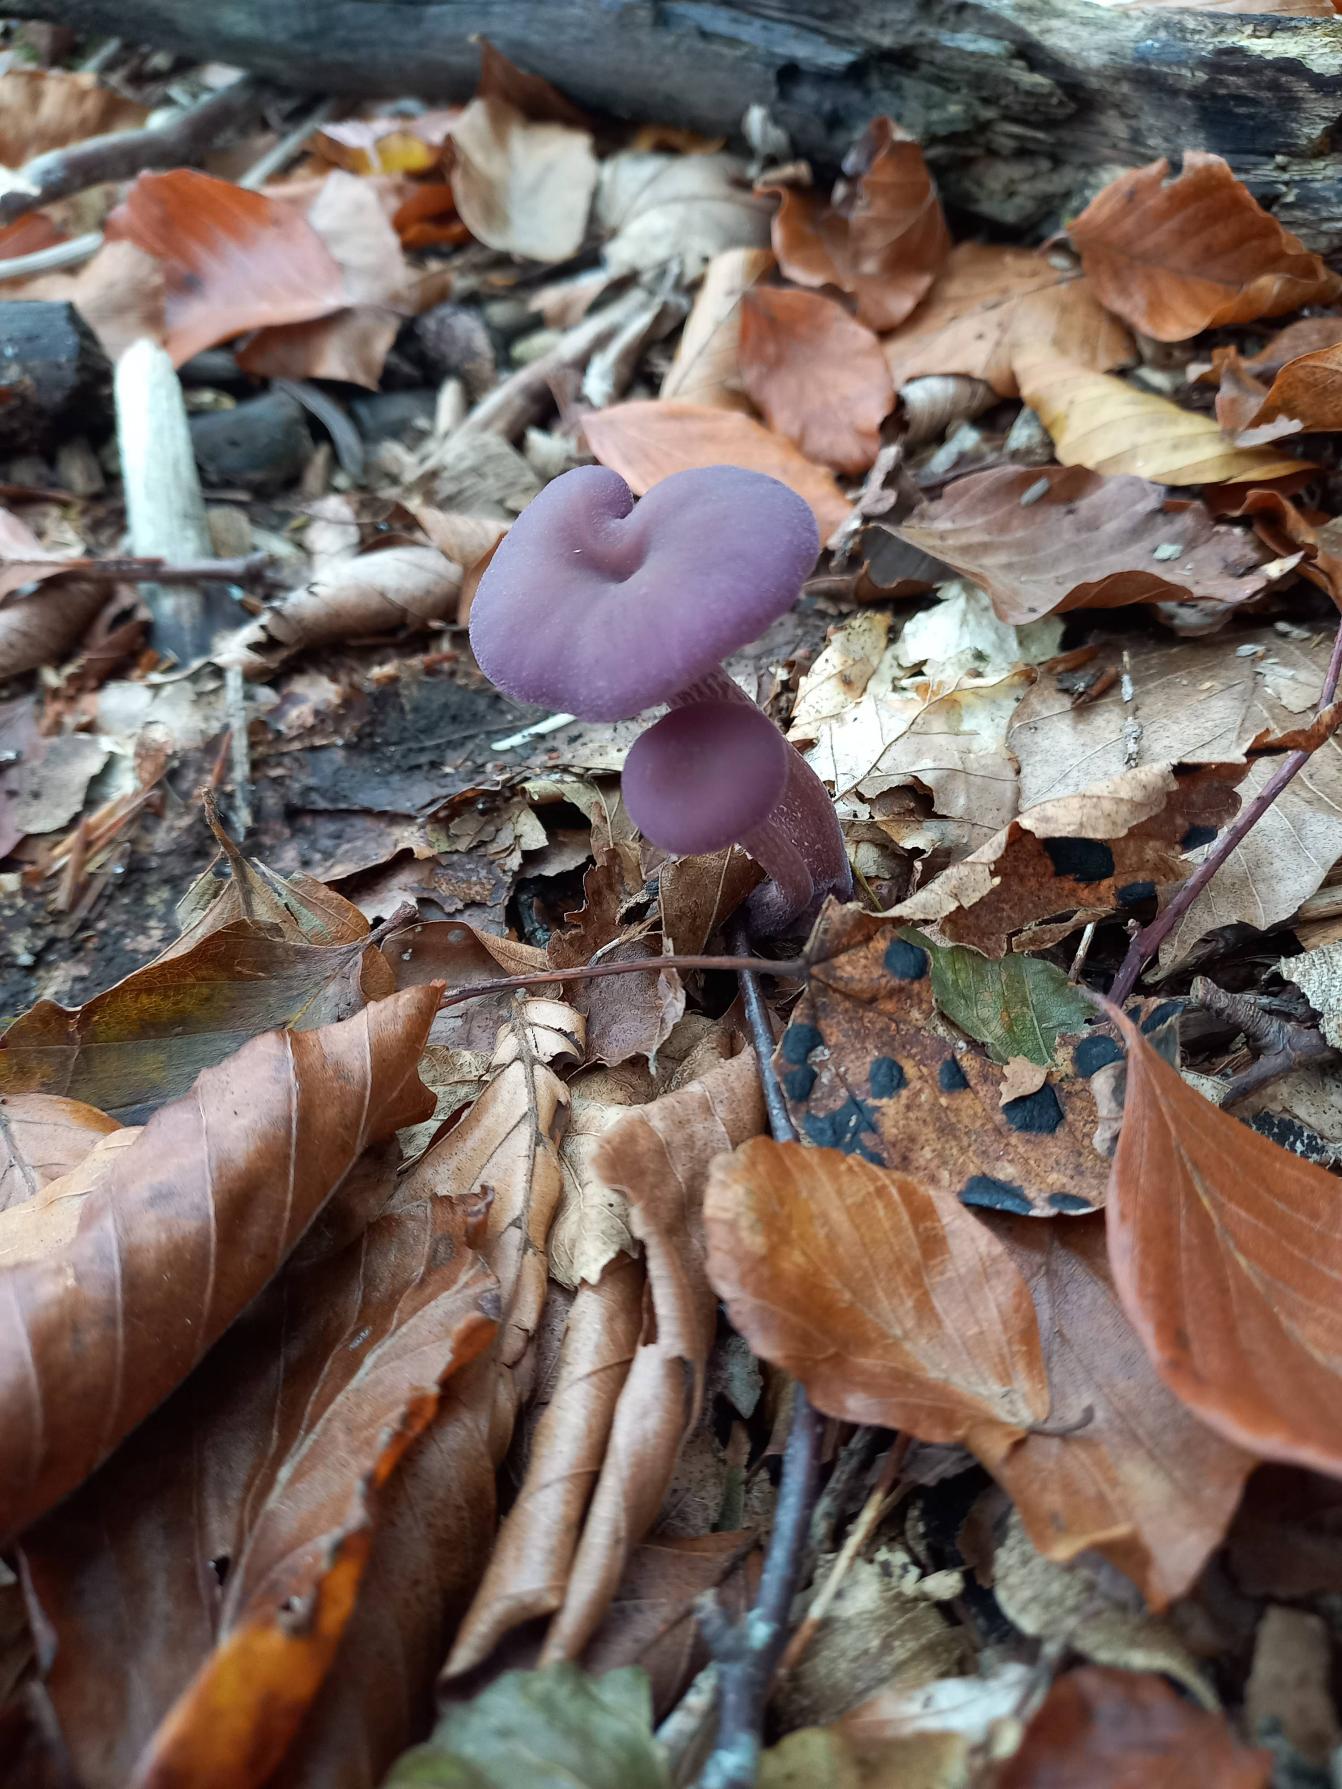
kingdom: Fungi
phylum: Basidiomycota
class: Agaricomycetes
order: Agaricales
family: Hydnangiaceae
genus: Laccaria
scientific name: Laccaria amethystina
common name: Violet ametysthat
